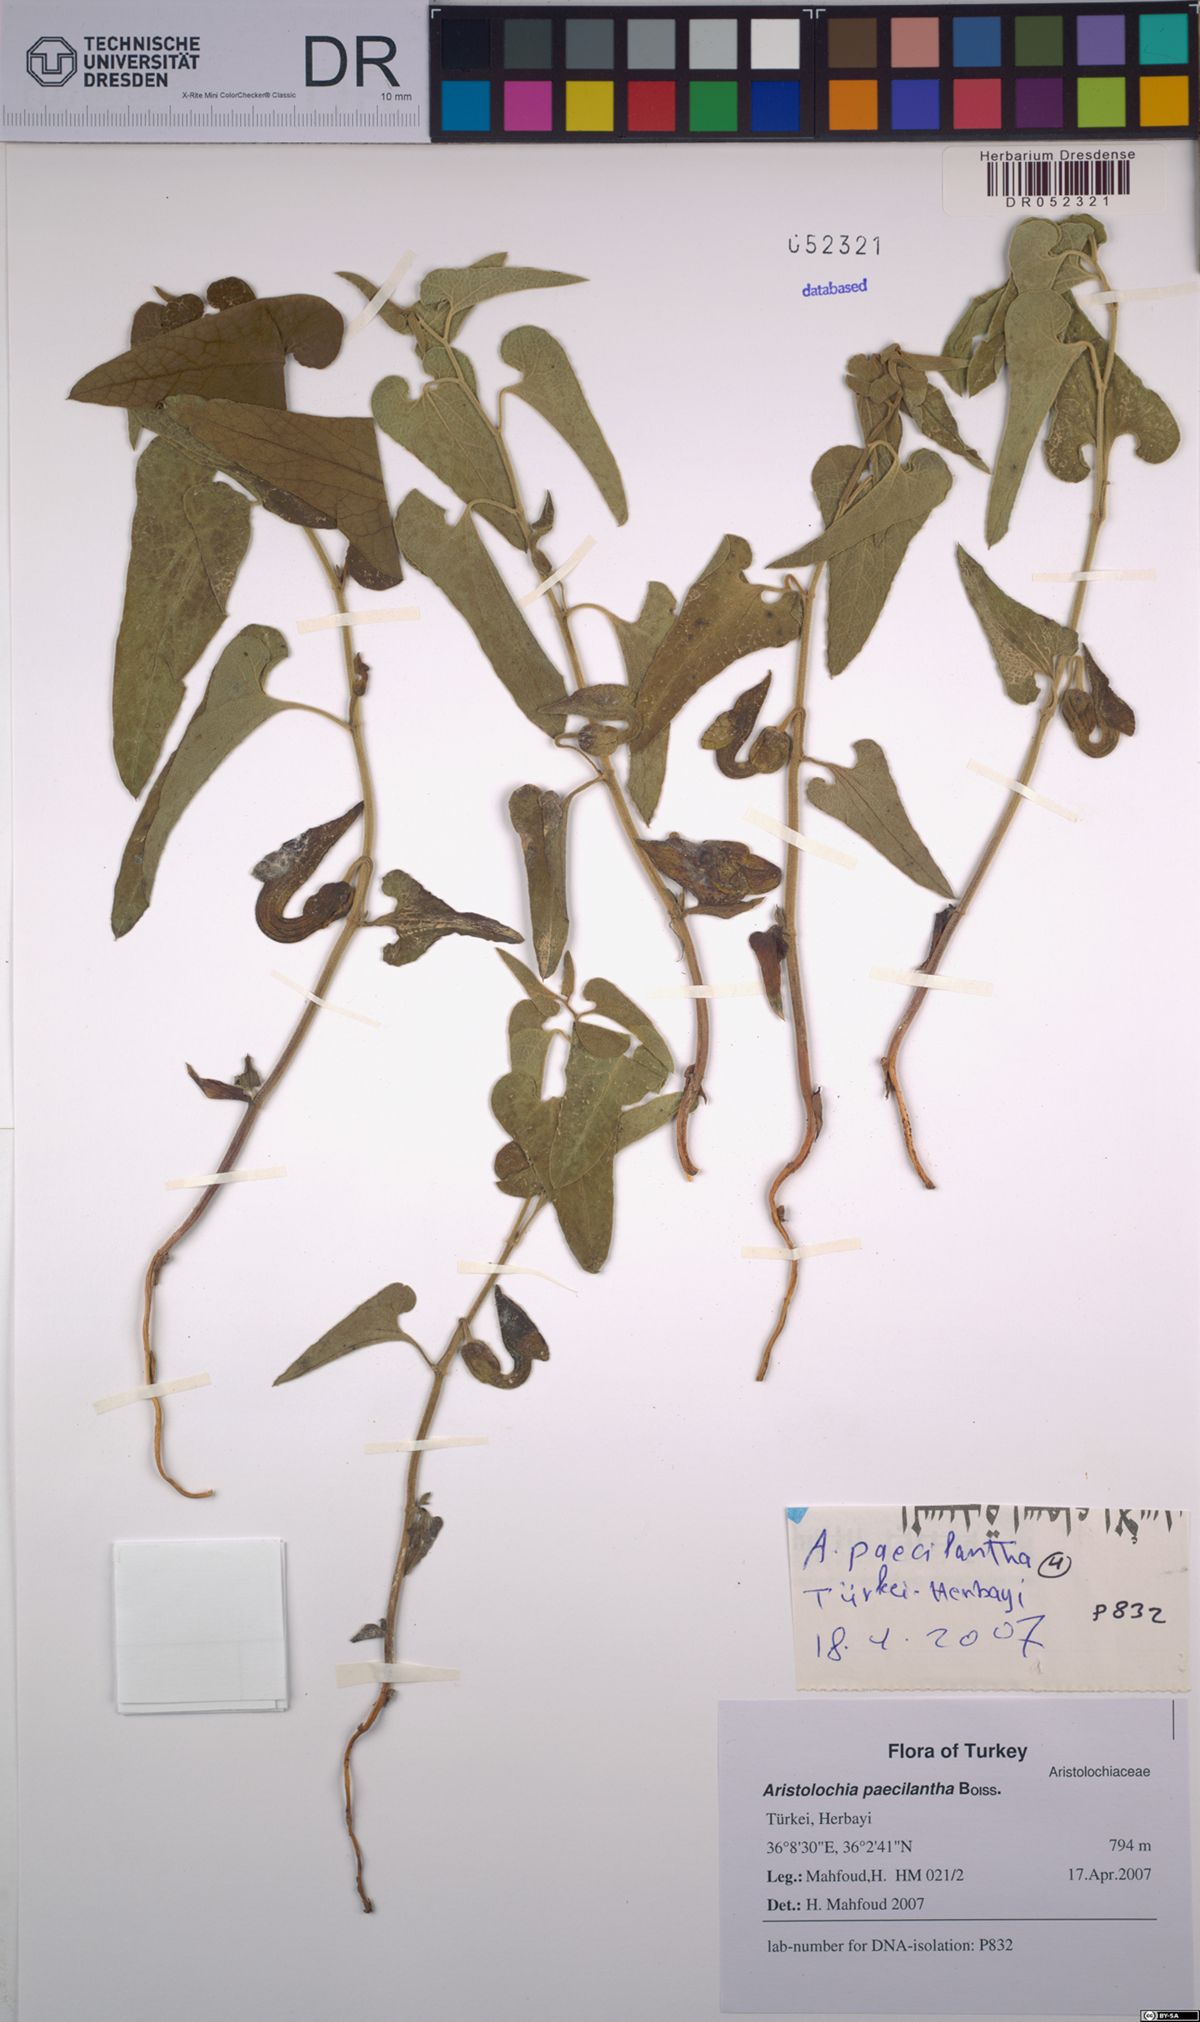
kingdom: Plantae
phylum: Tracheophyta
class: Magnoliopsida
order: Piperales
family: Aristolochiaceae
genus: Aristolochia
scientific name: Aristolochia paecilantha
